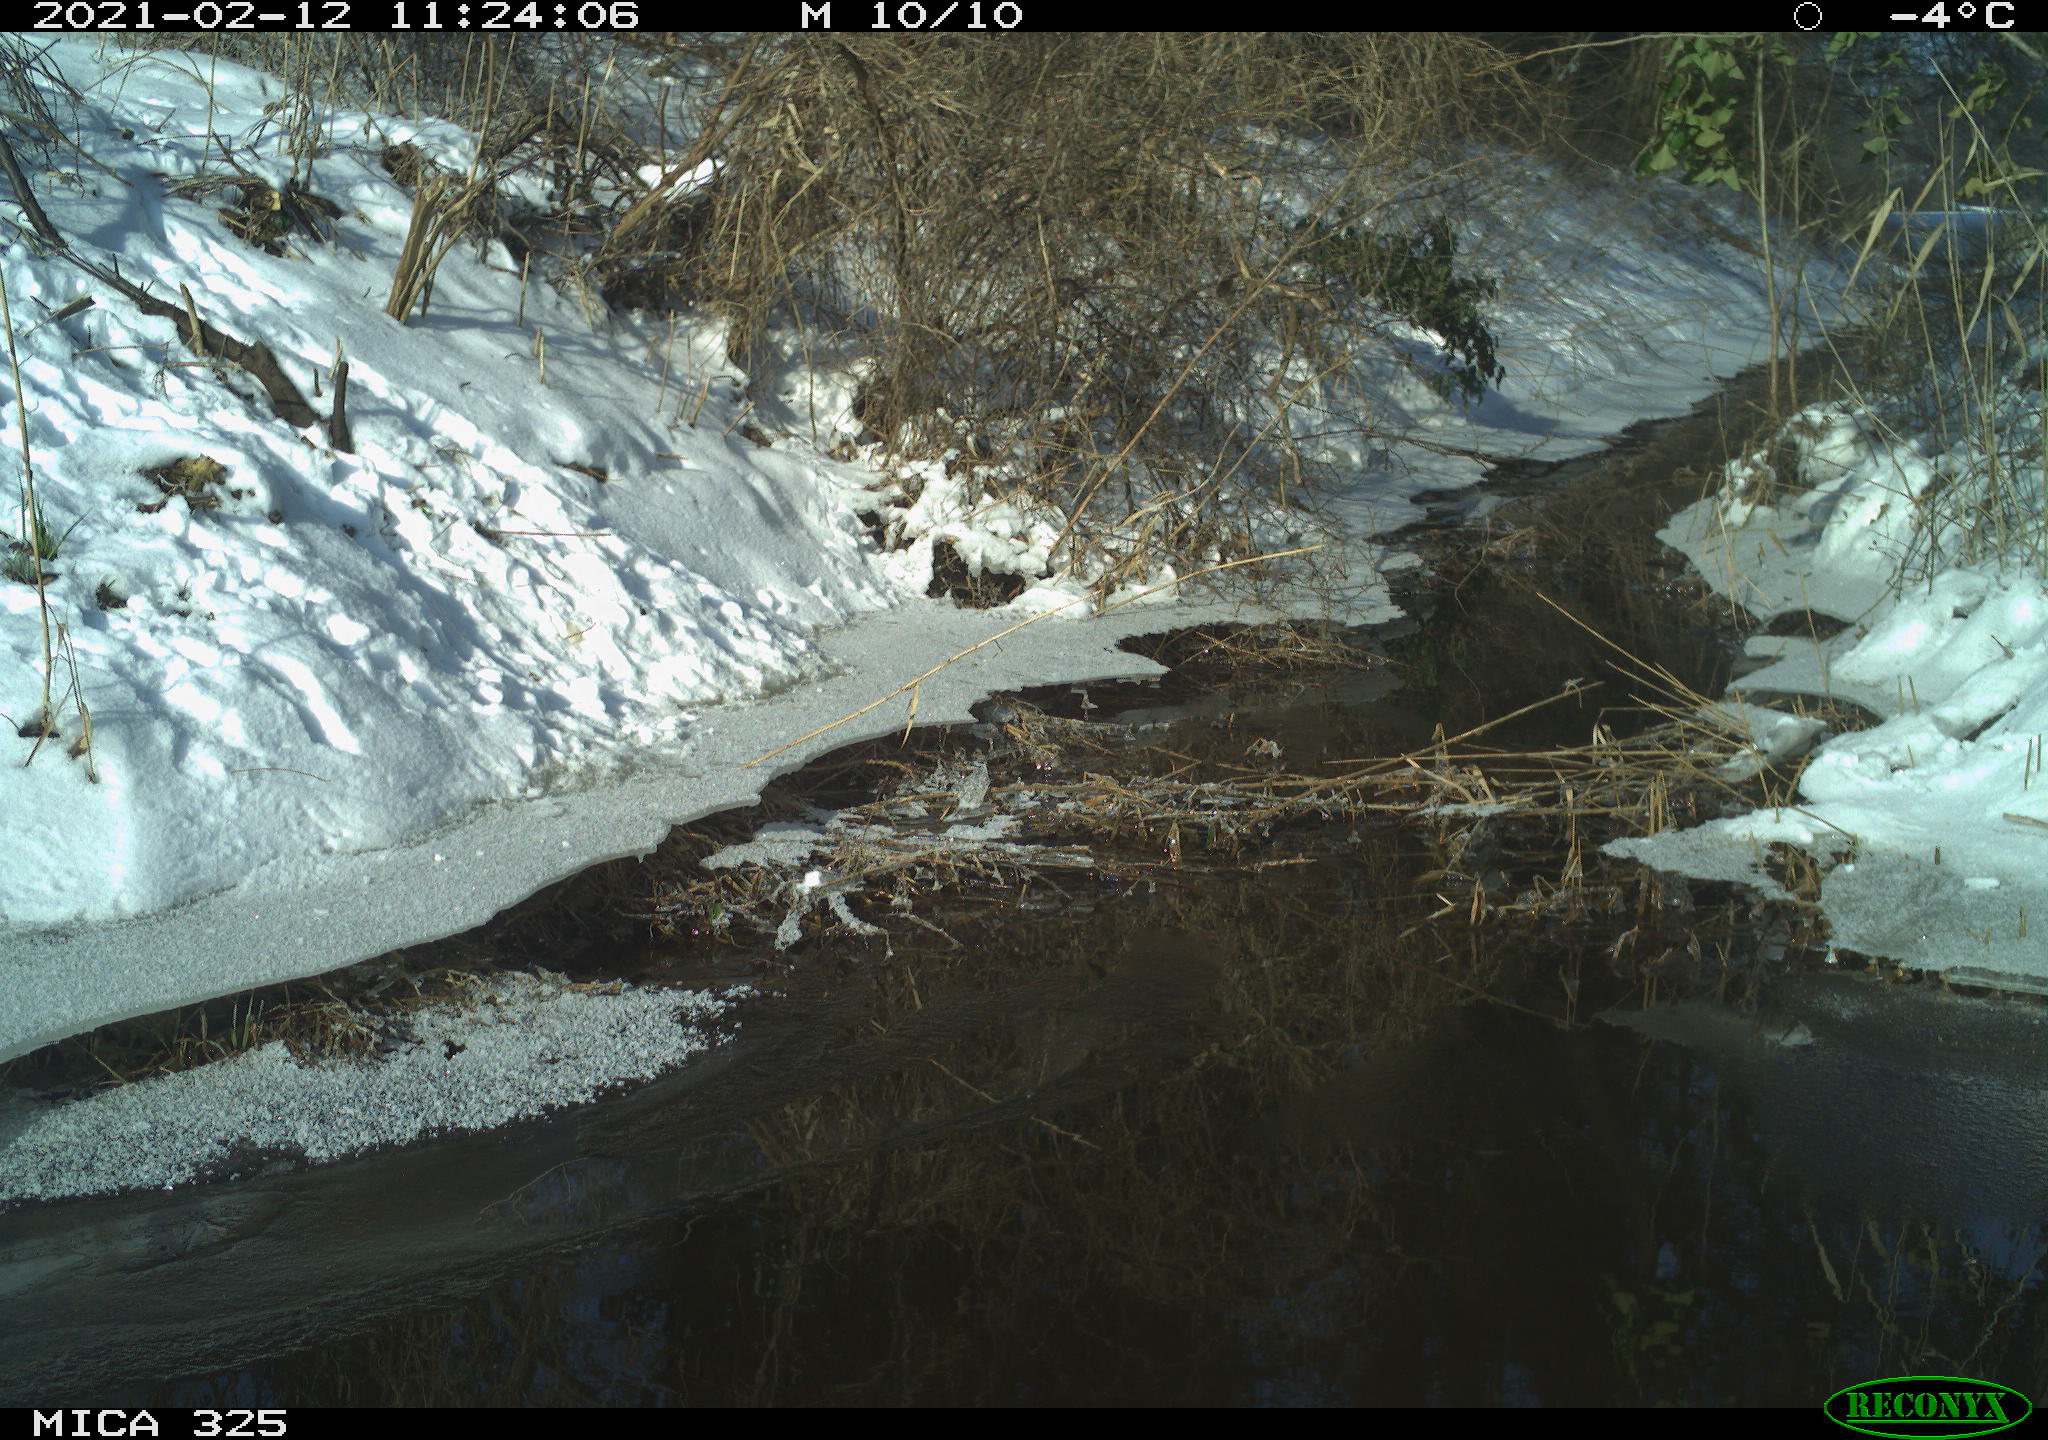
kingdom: Animalia
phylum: Chordata
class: Aves
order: Passeriformes
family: Turdidae
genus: Turdus
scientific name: Turdus merula
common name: Common blackbird
